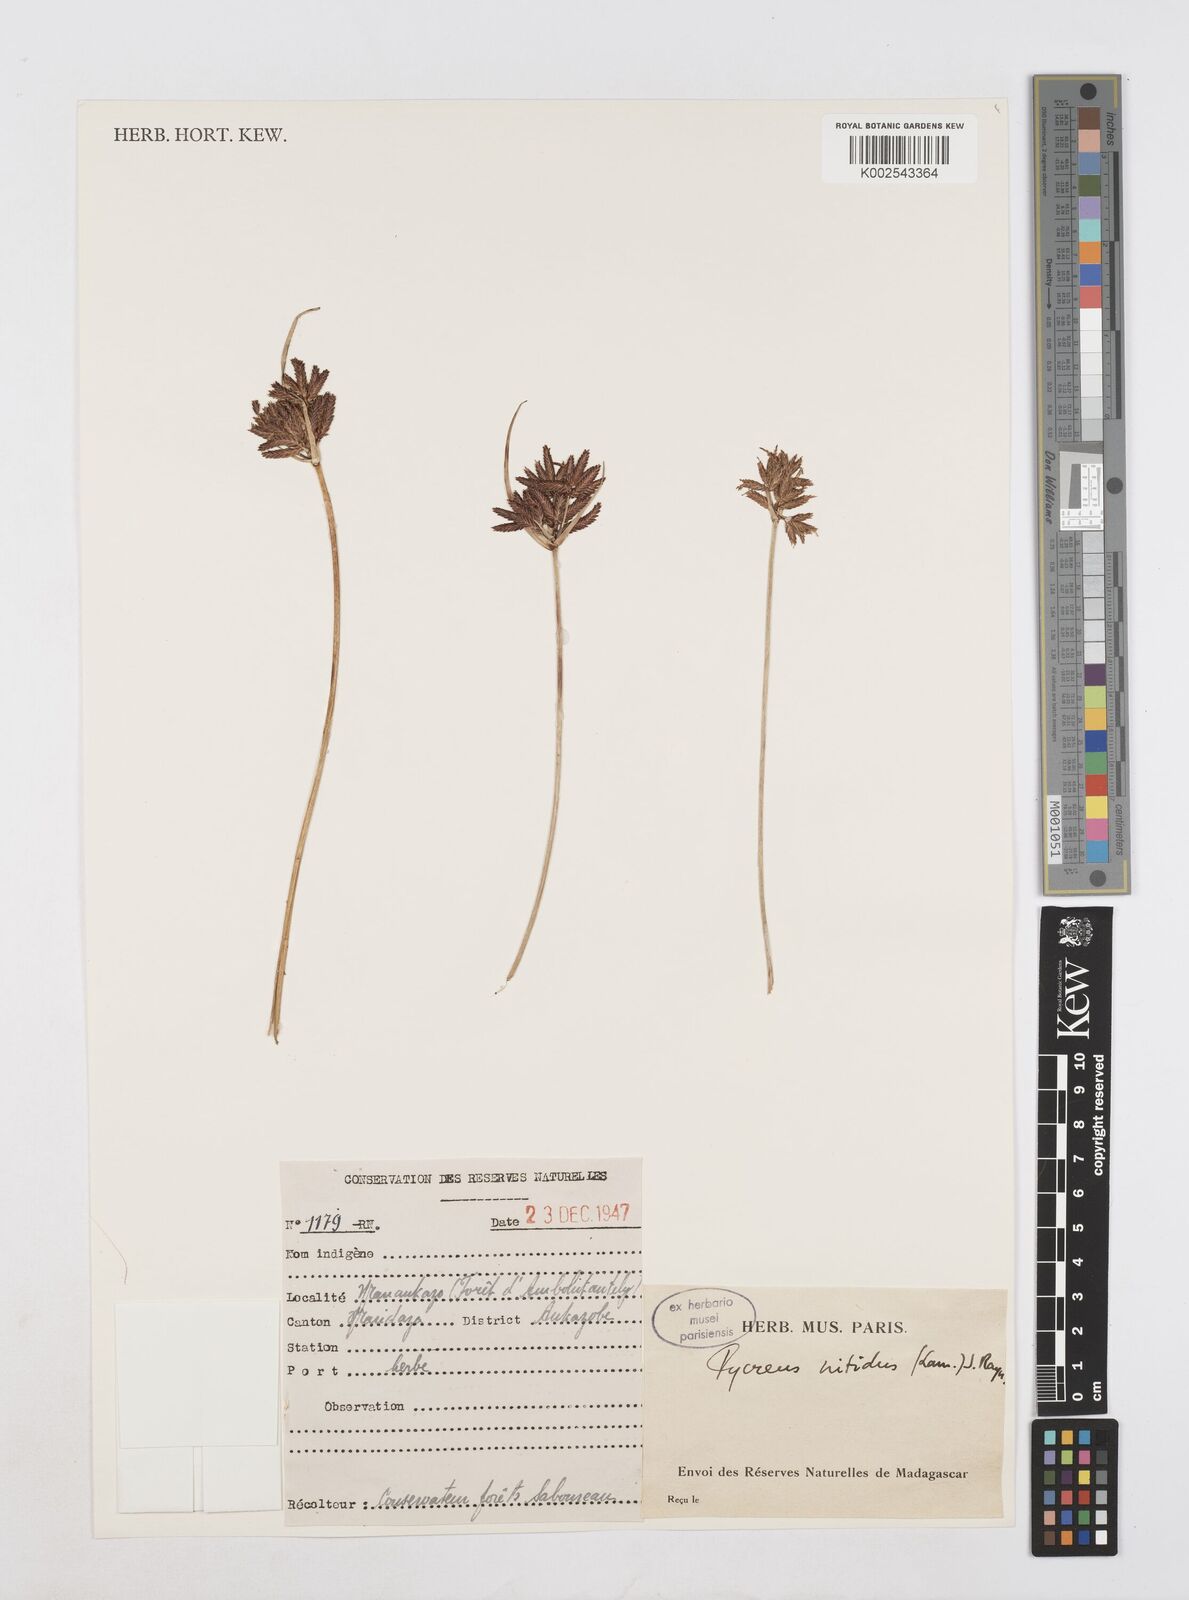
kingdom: Plantae
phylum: Tracheophyta
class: Liliopsida
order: Poales
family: Cyperaceae
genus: Cyperus
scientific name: Cyperus nitidus
